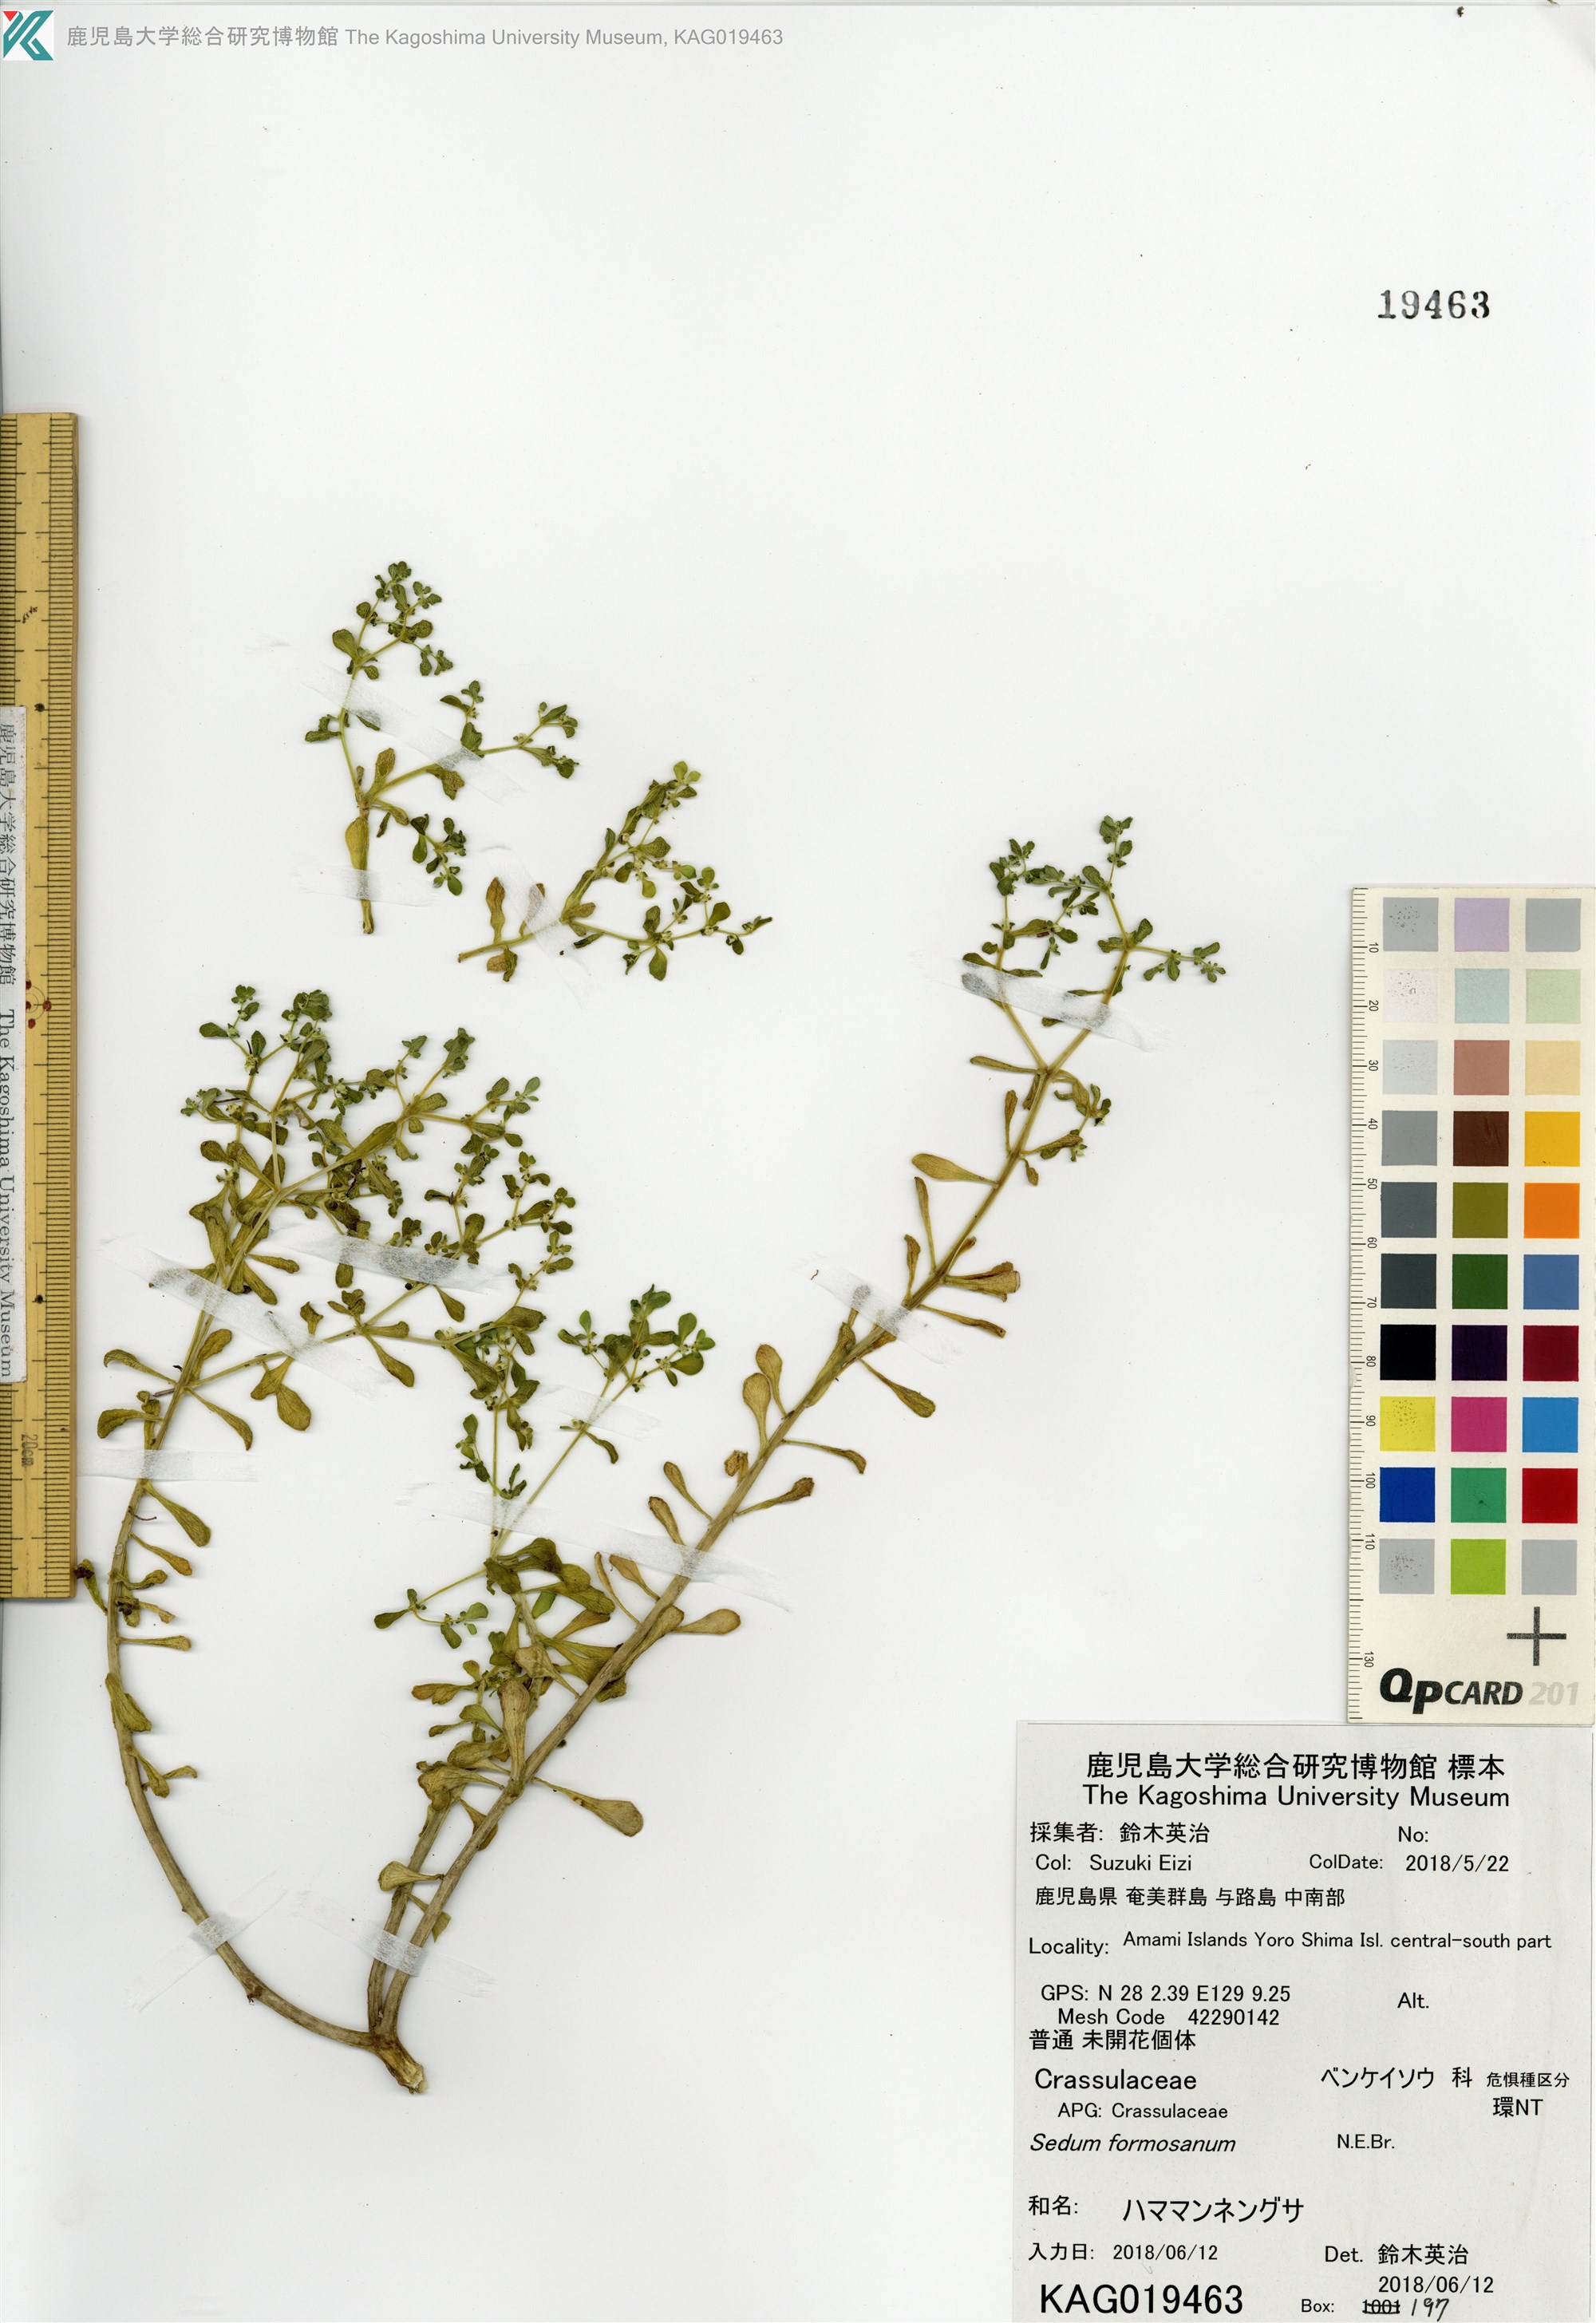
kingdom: Plantae
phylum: Tracheophyta
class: Magnoliopsida
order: Saxifragales
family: Crassulaceae
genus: Sedum
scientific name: Sedum formosanum
